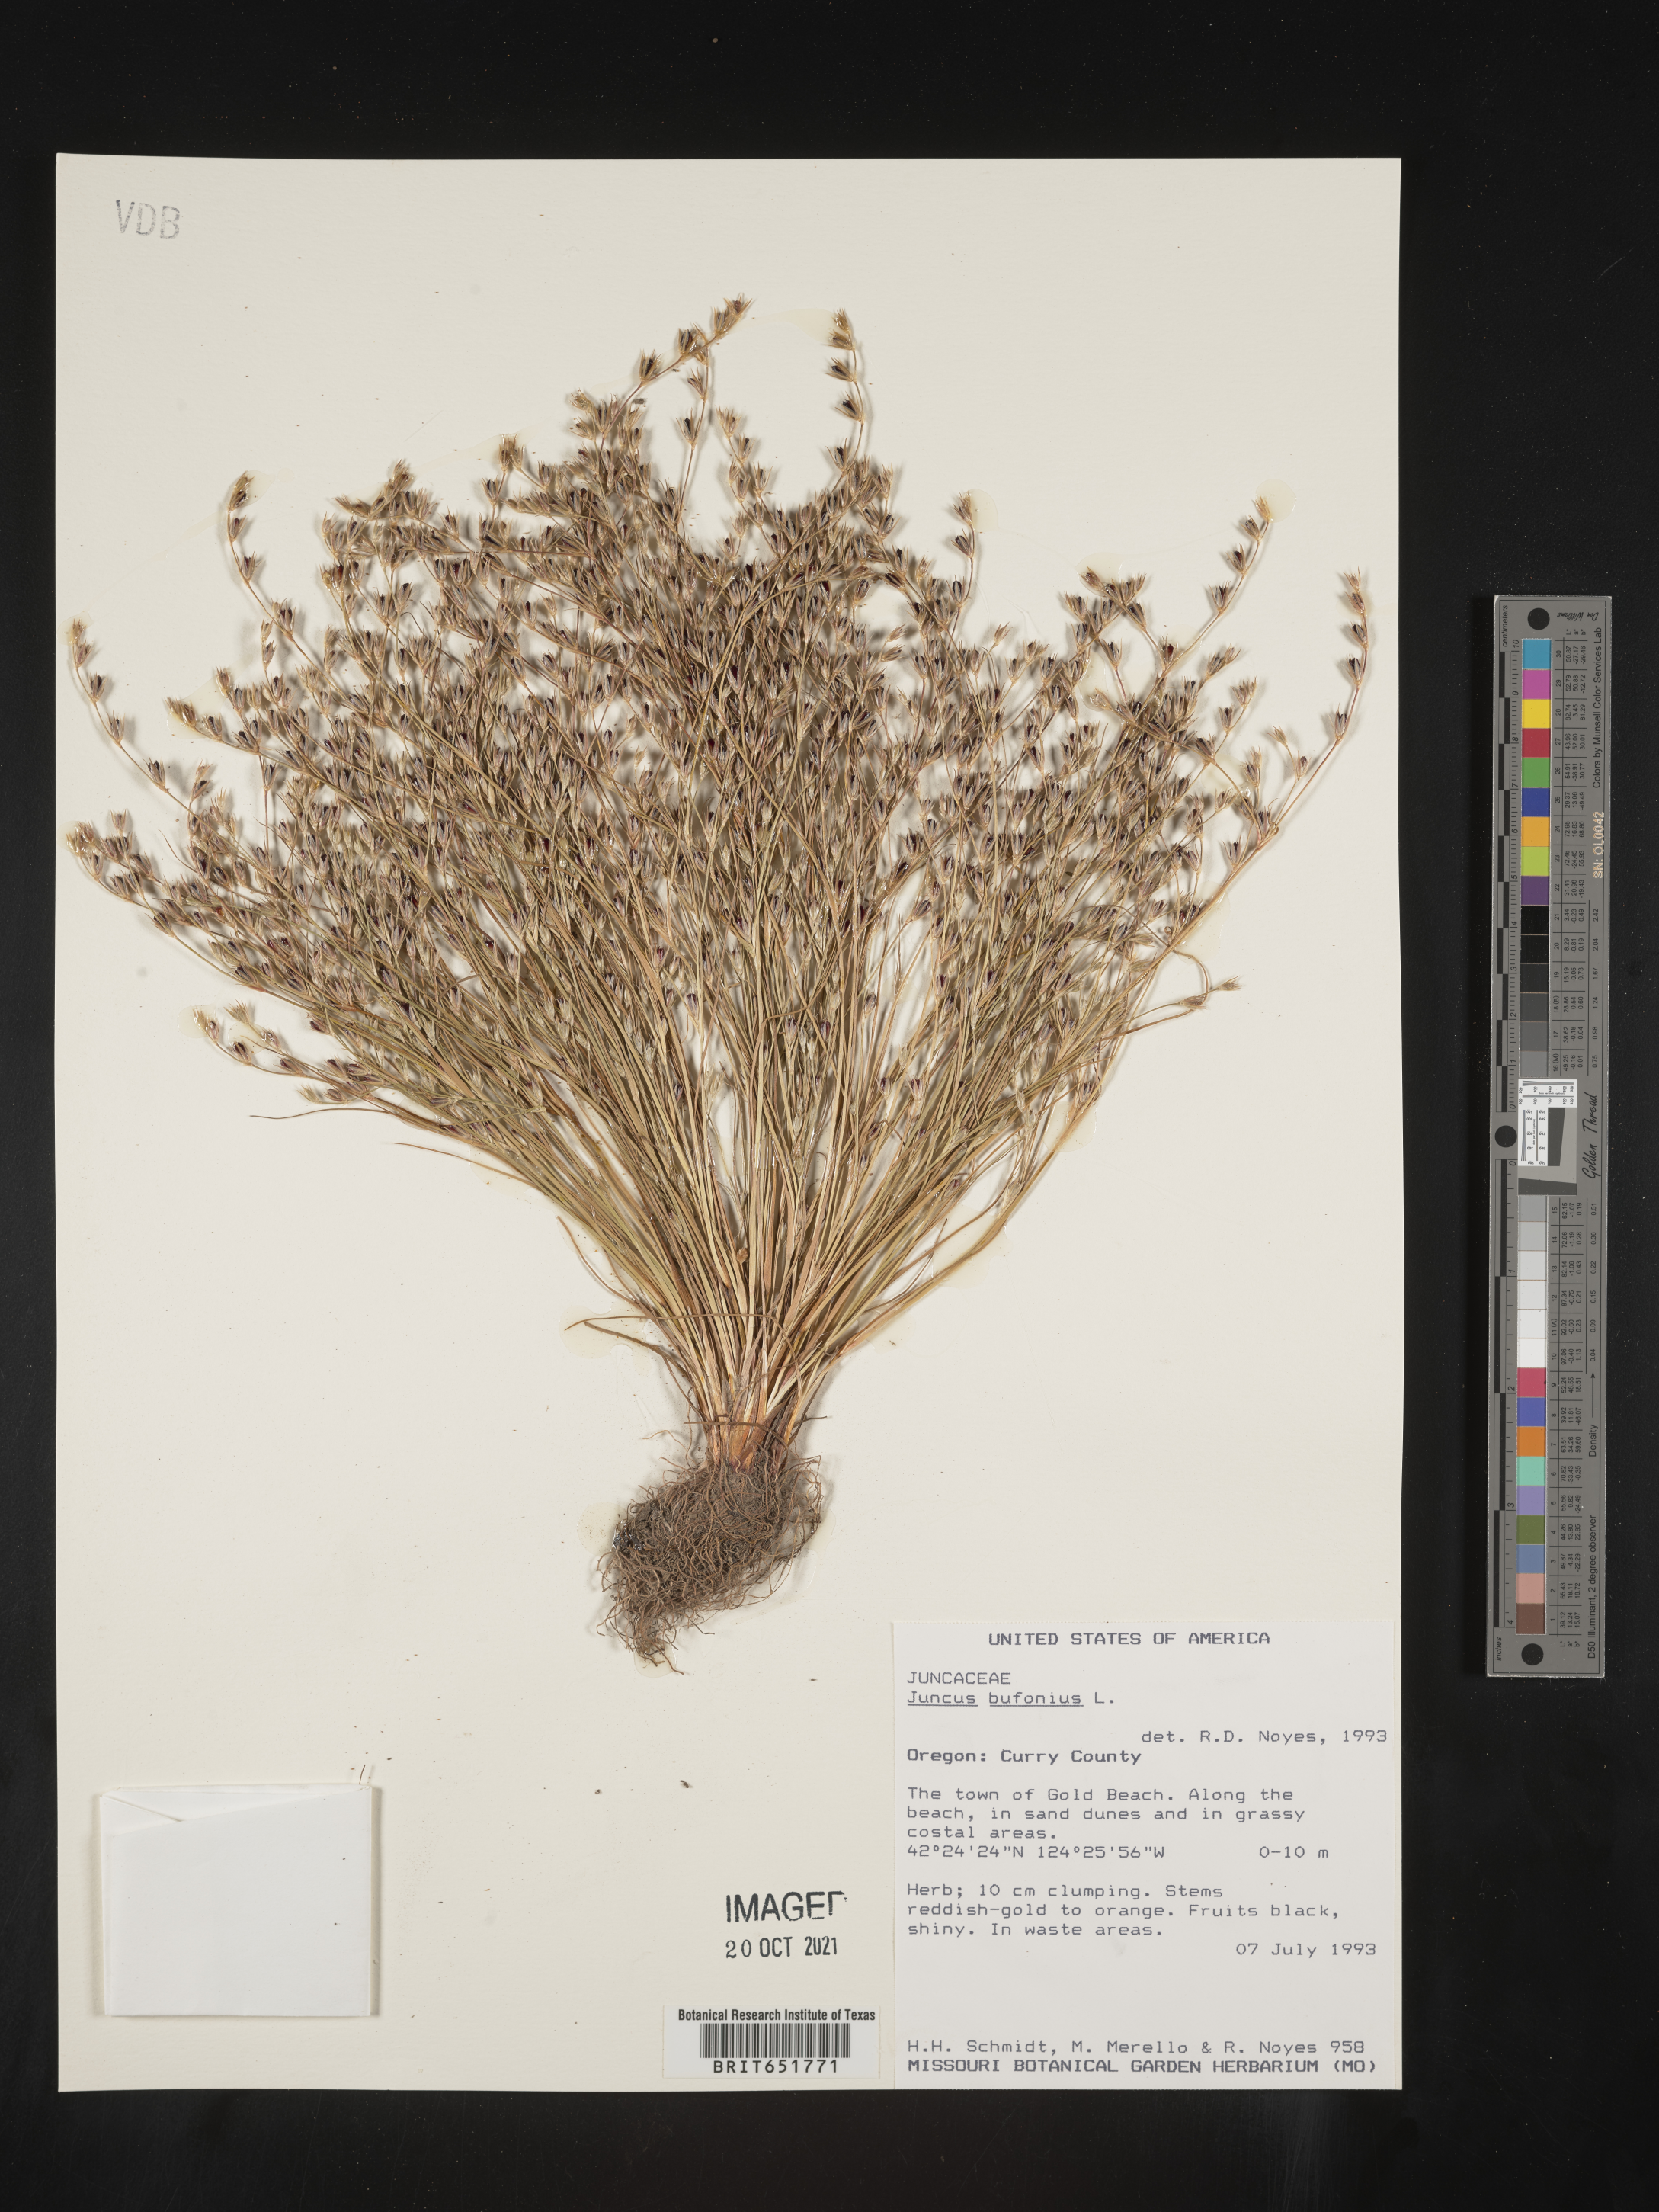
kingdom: Plantae
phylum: Tracheophyta
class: Liliopsida
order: Poales
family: Juncaceae
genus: Juncus
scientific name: Juncus bufonius
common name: Toad rush
